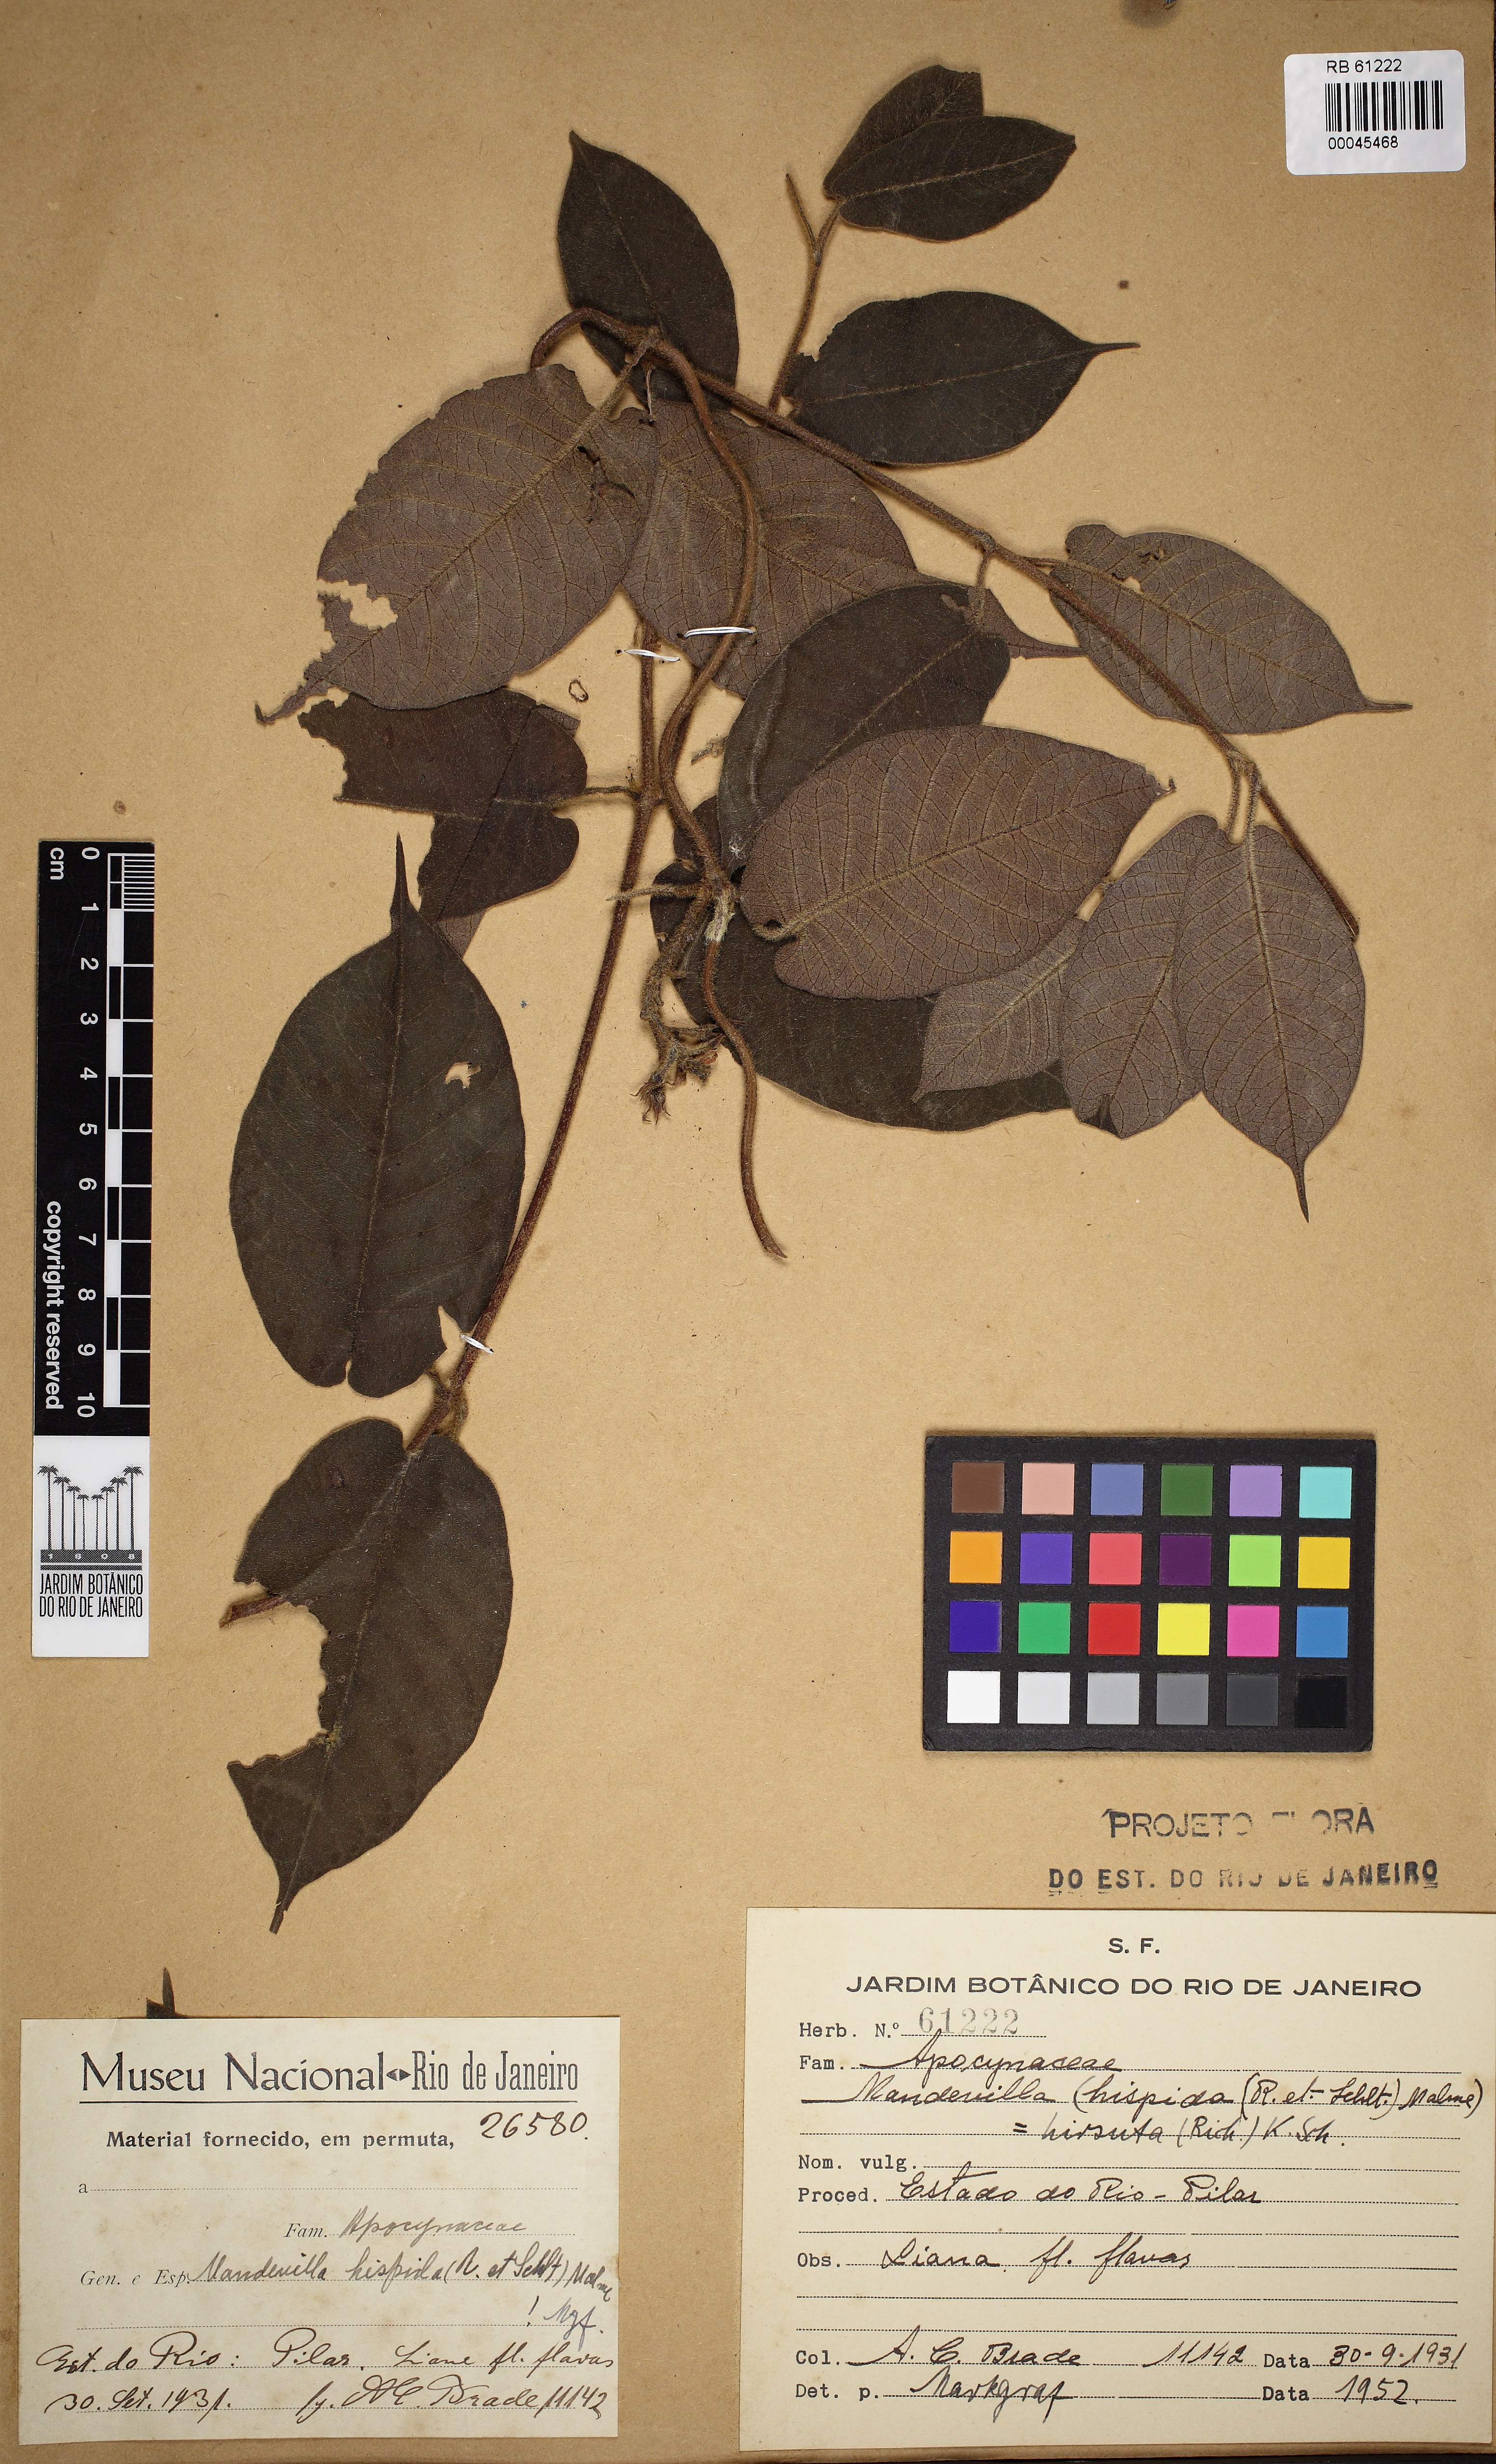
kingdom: Plantae
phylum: Tracheophyta
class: Magnoliopsida
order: Gentianales
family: Apocynaceae
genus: Mandevilla
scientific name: Mandevilla hirsuta
